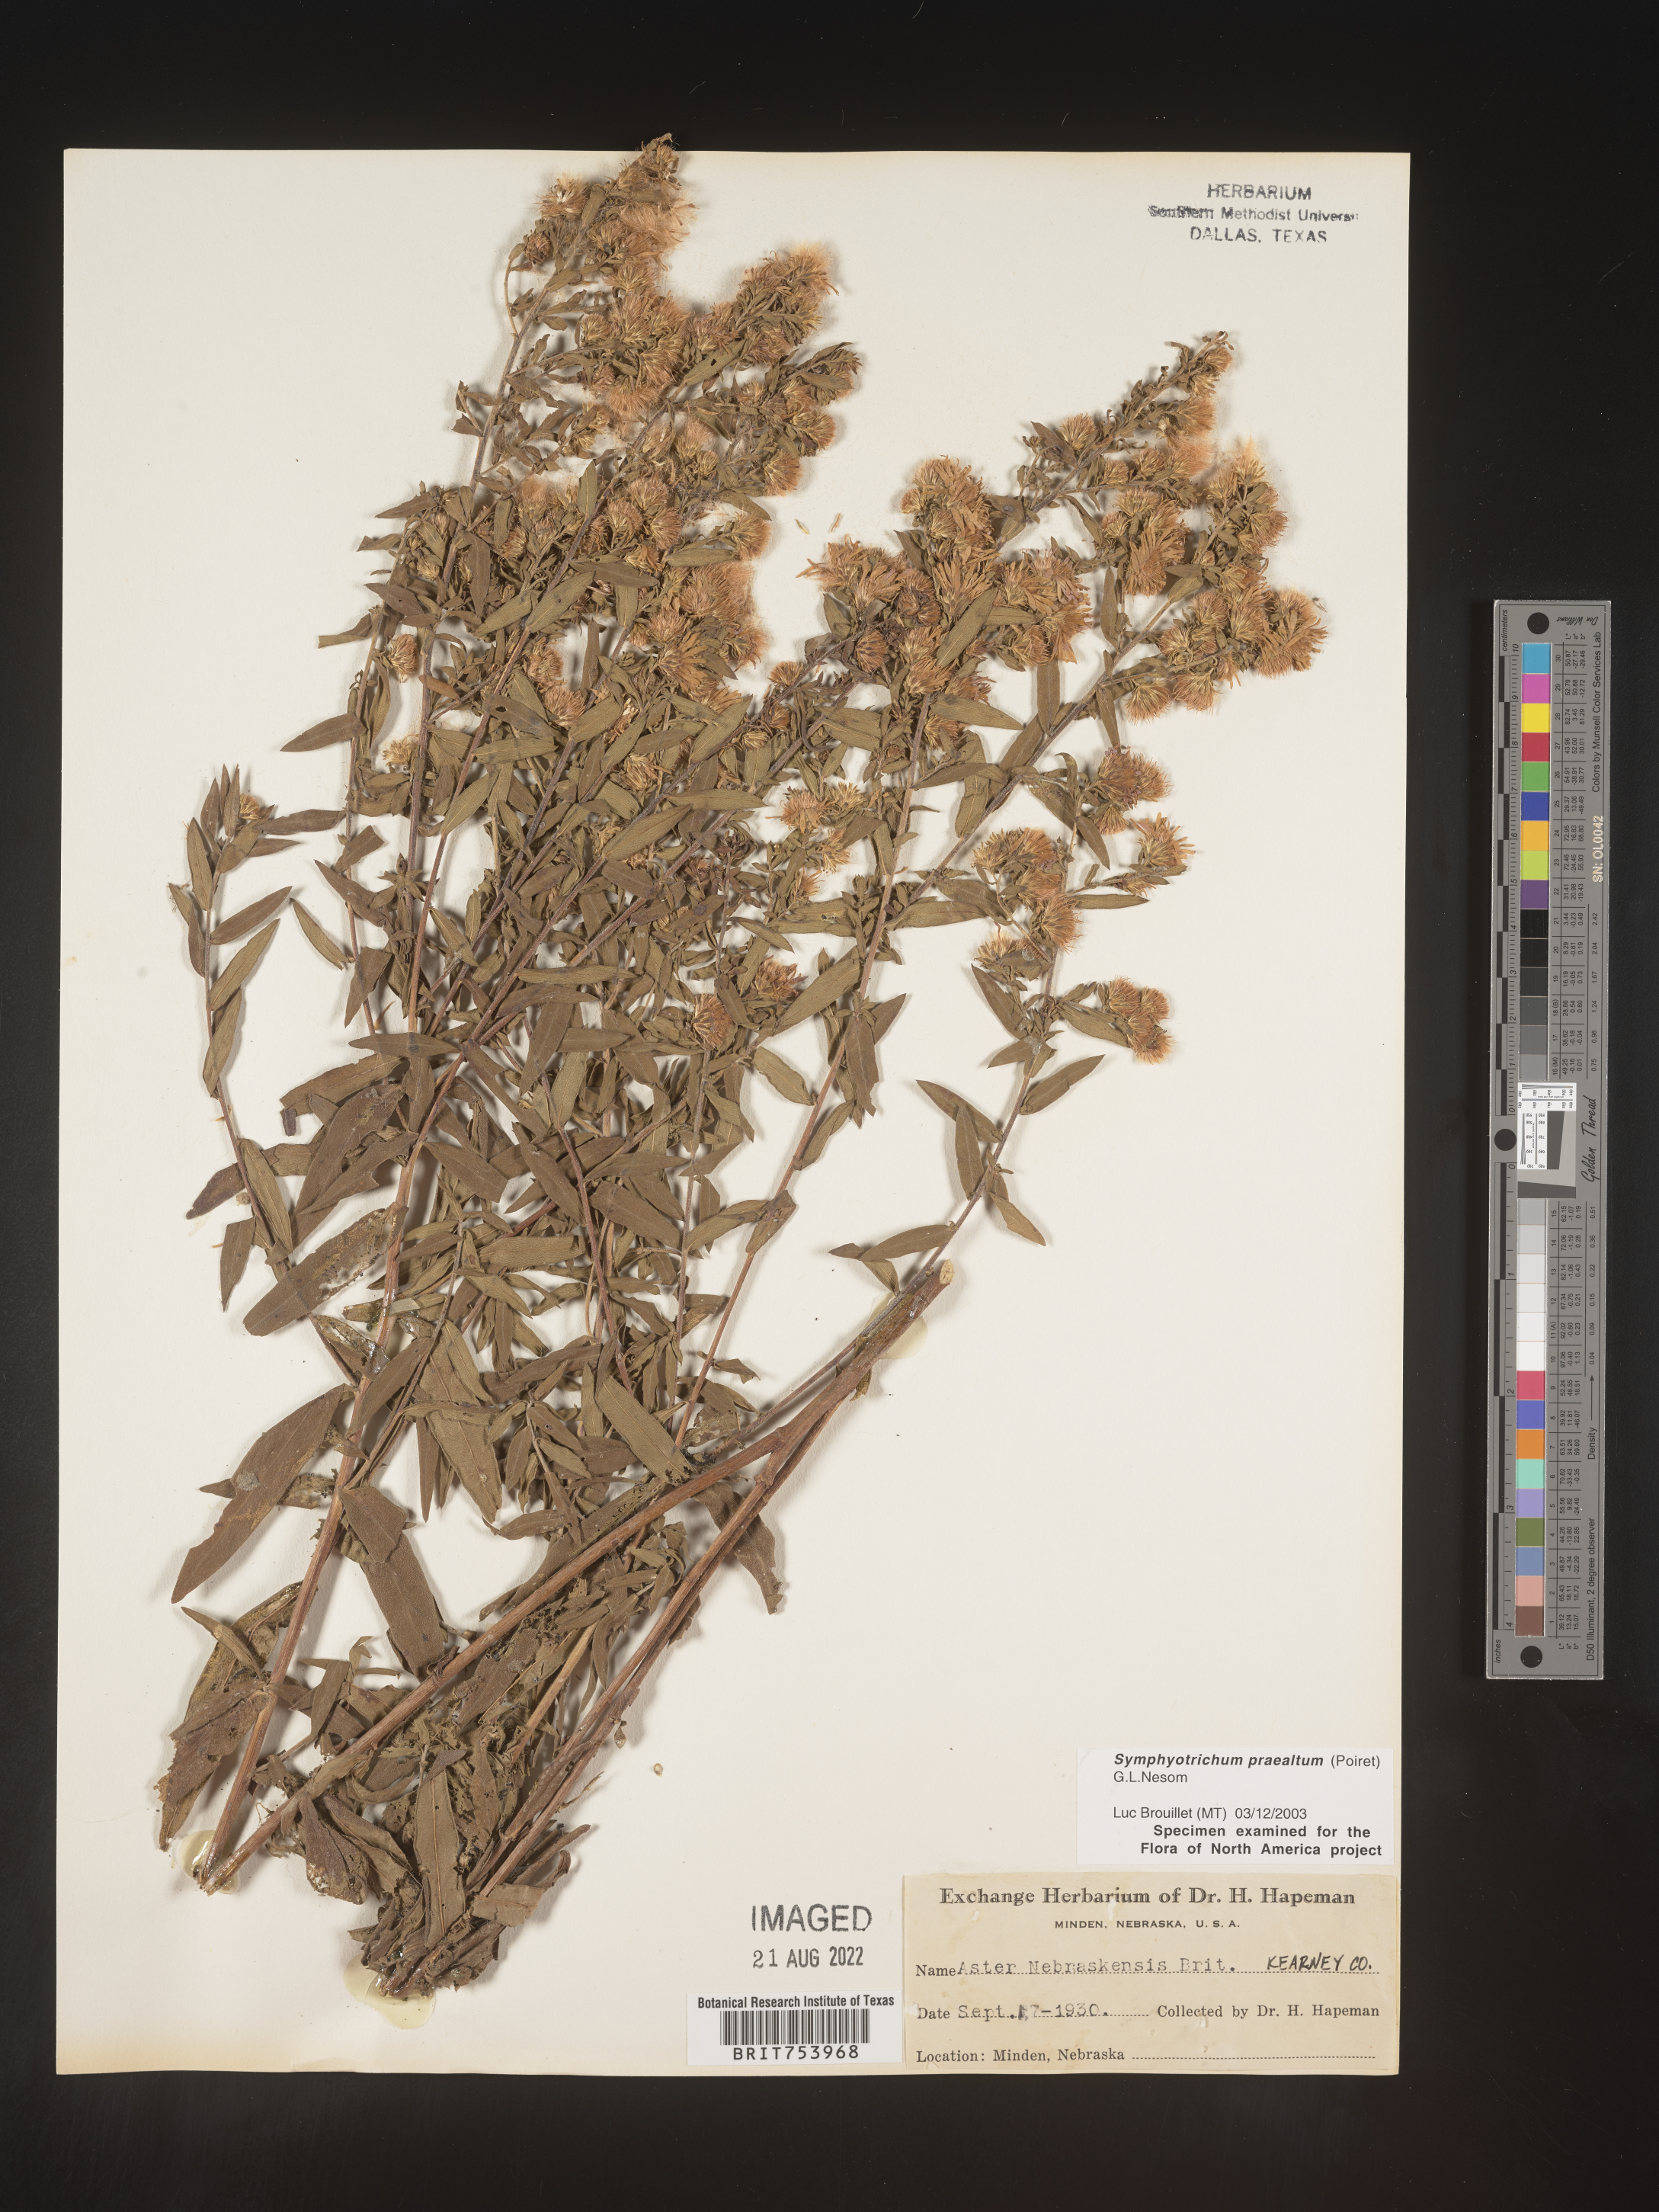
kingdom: Plantae
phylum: Tracheophyta
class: Magnoliopsida
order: Asterales
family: Asteraceae
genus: Symphyotrichum
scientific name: Symphyotrichum praealtum
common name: Willow aster
